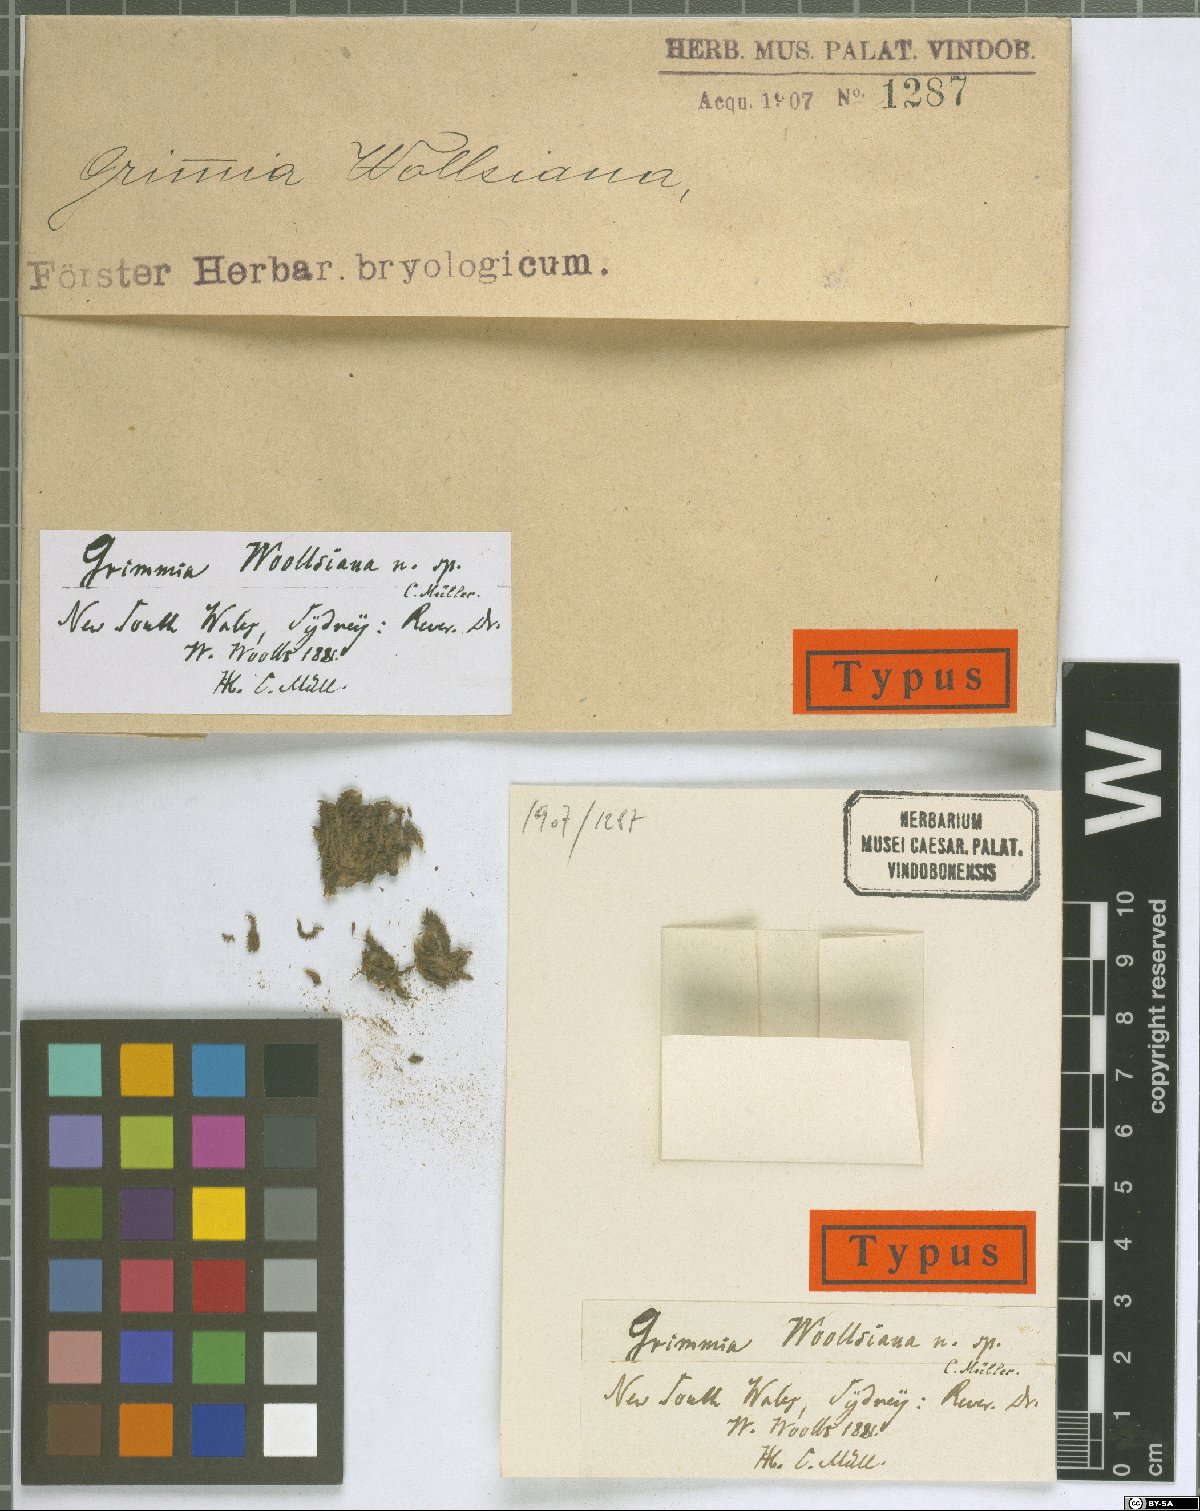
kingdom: Plantae
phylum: Bryophyta
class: Bryopsida
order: Grimmiales
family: Grimmiaceae
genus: Grimmia
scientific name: Grimmia pulvinata
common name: Grey-cushioned grimmia
